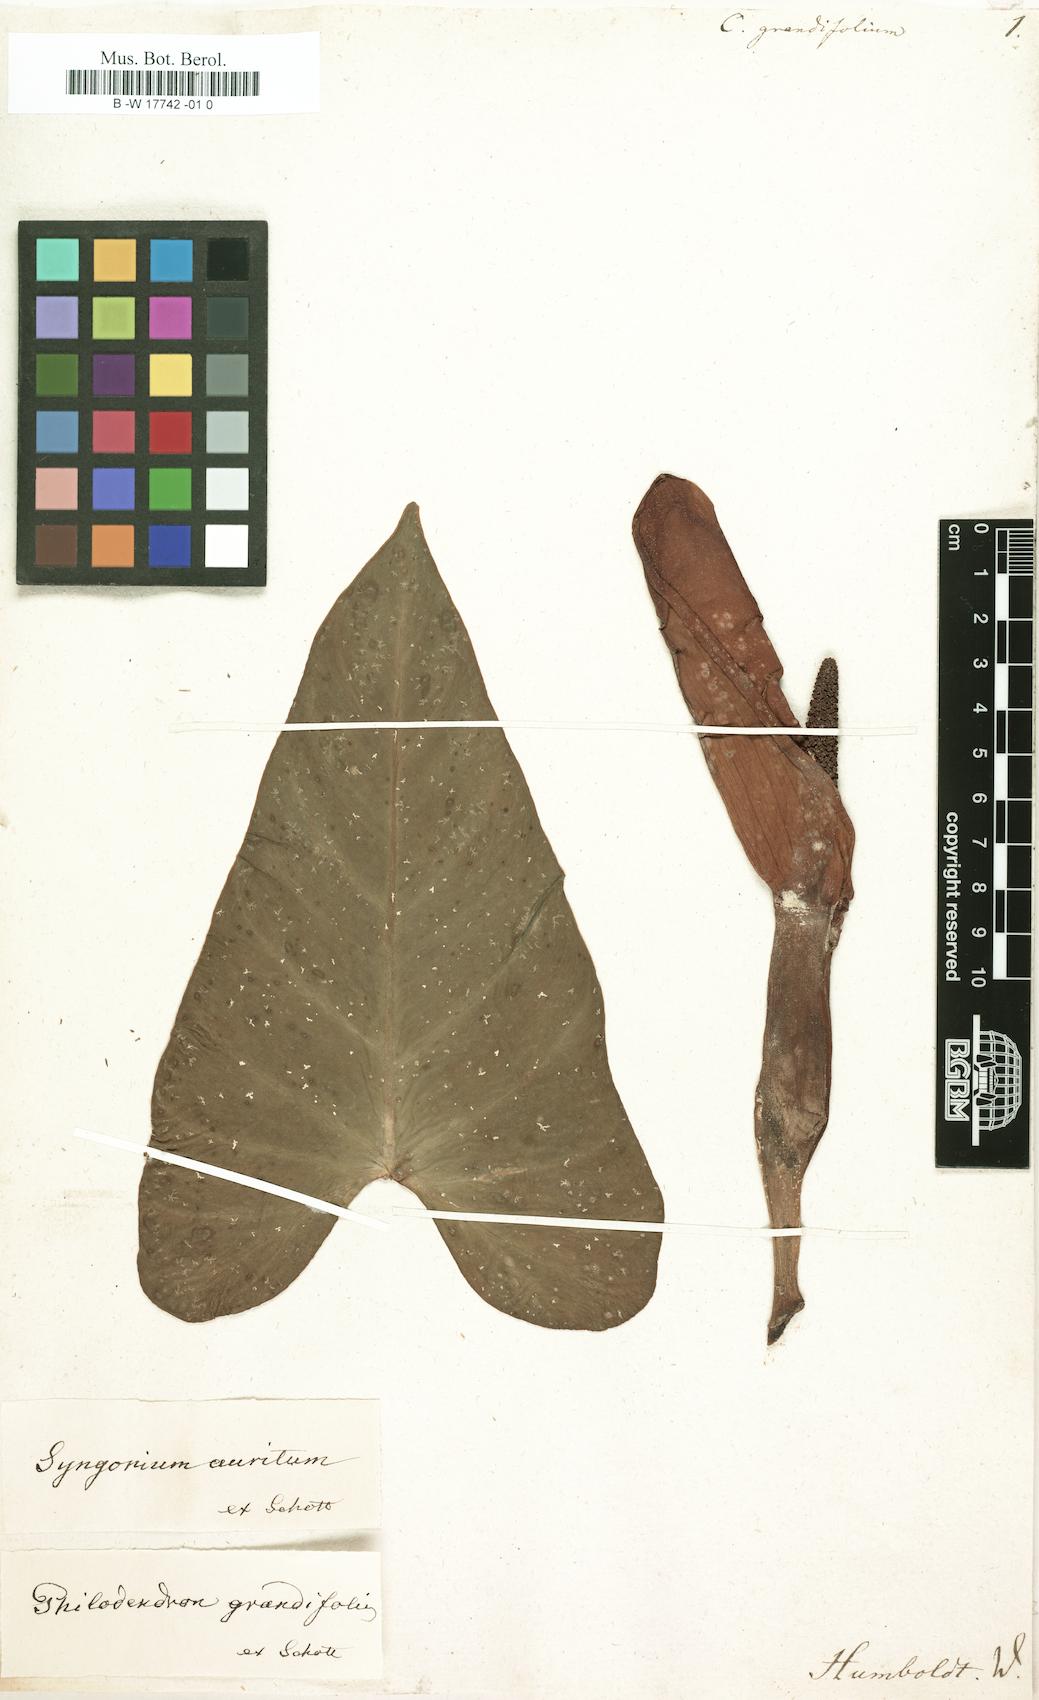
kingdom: Plantae
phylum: Tracheophyta
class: Liliopsida
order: Alismatales
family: Araceae
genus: Philodendron
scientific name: Philodendron grandifolium
